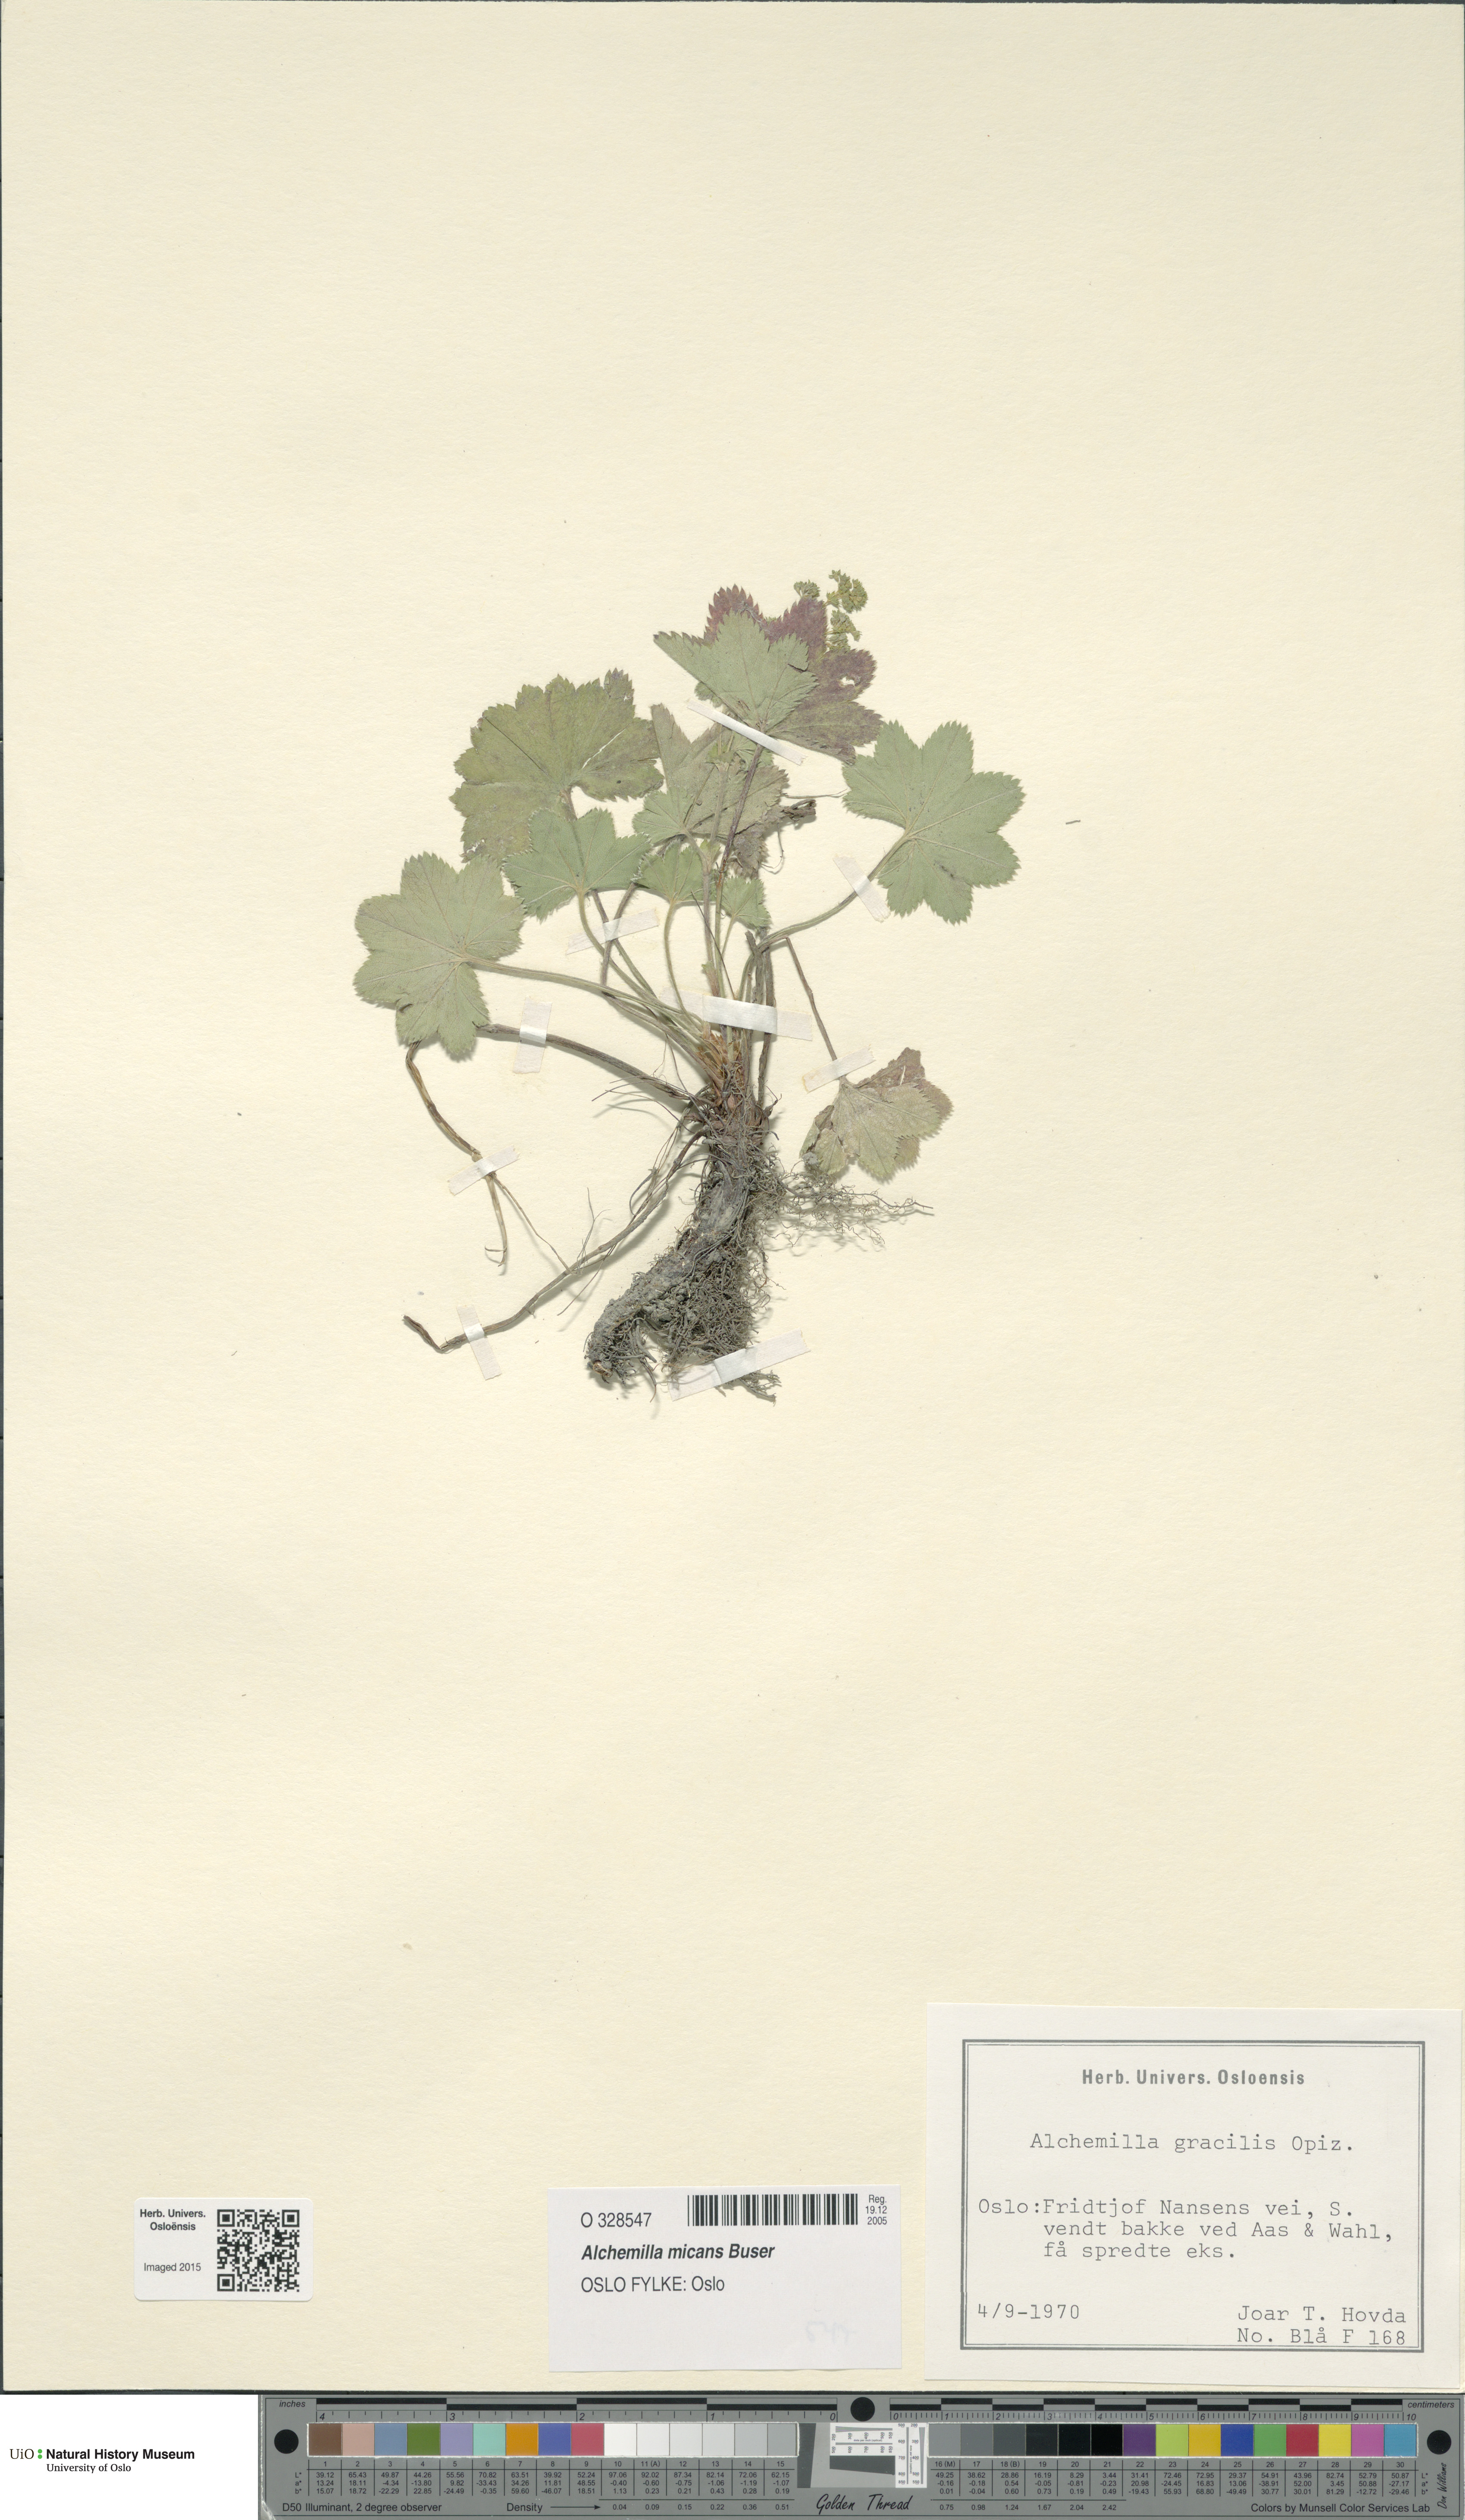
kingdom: Plantae
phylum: Tracheophyta
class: Magnoliopsida
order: Rosales
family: Rosaceae
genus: Alchemilla
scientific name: Alchemilla micans
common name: Gleaming lady's mantle
